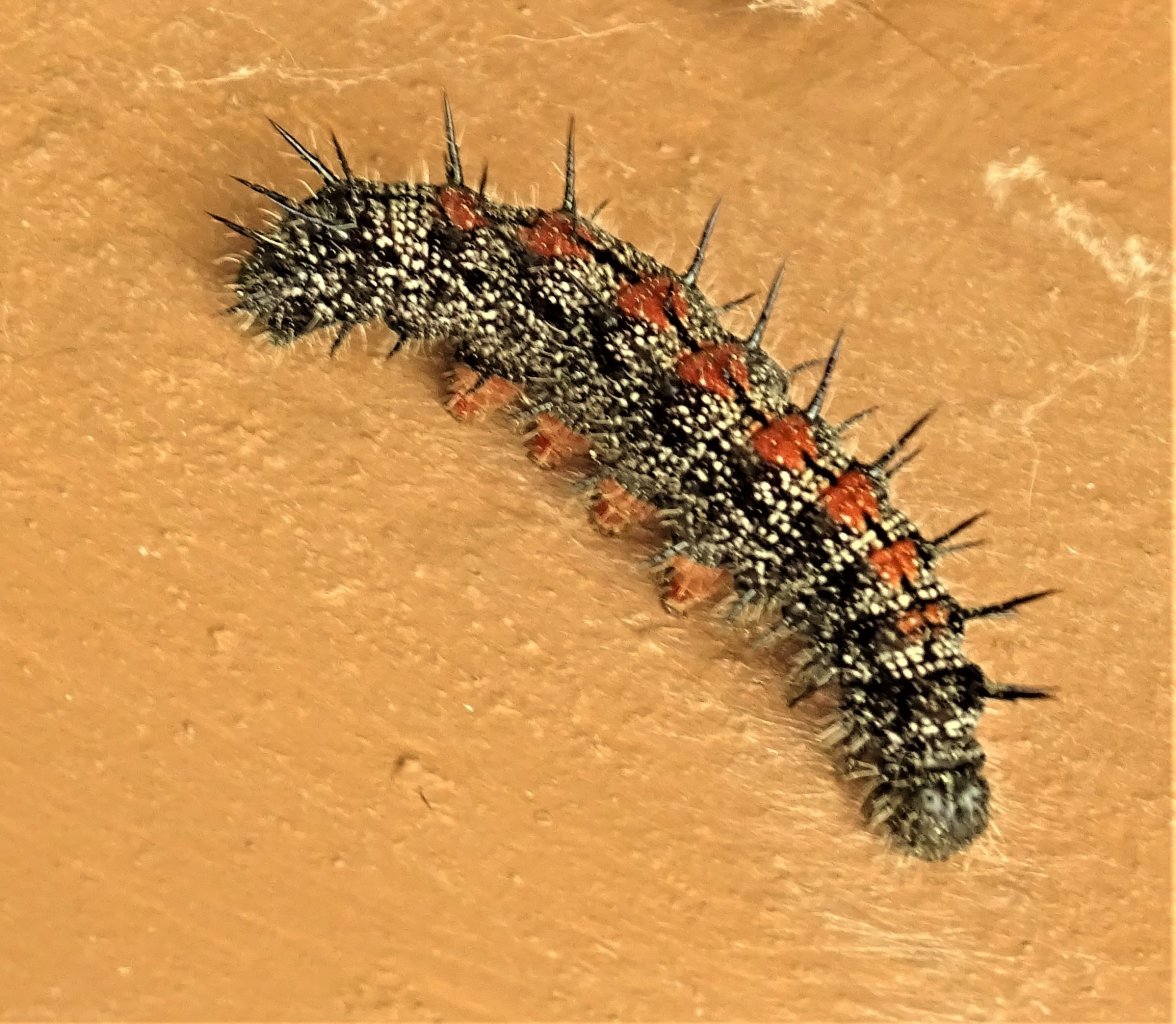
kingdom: Animalia
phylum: Arthropoda
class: Insecta
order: Lepidoptera
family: Nymphalidae
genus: Nymphalis
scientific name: Nymphalis antiopa
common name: Mourning Cloak
